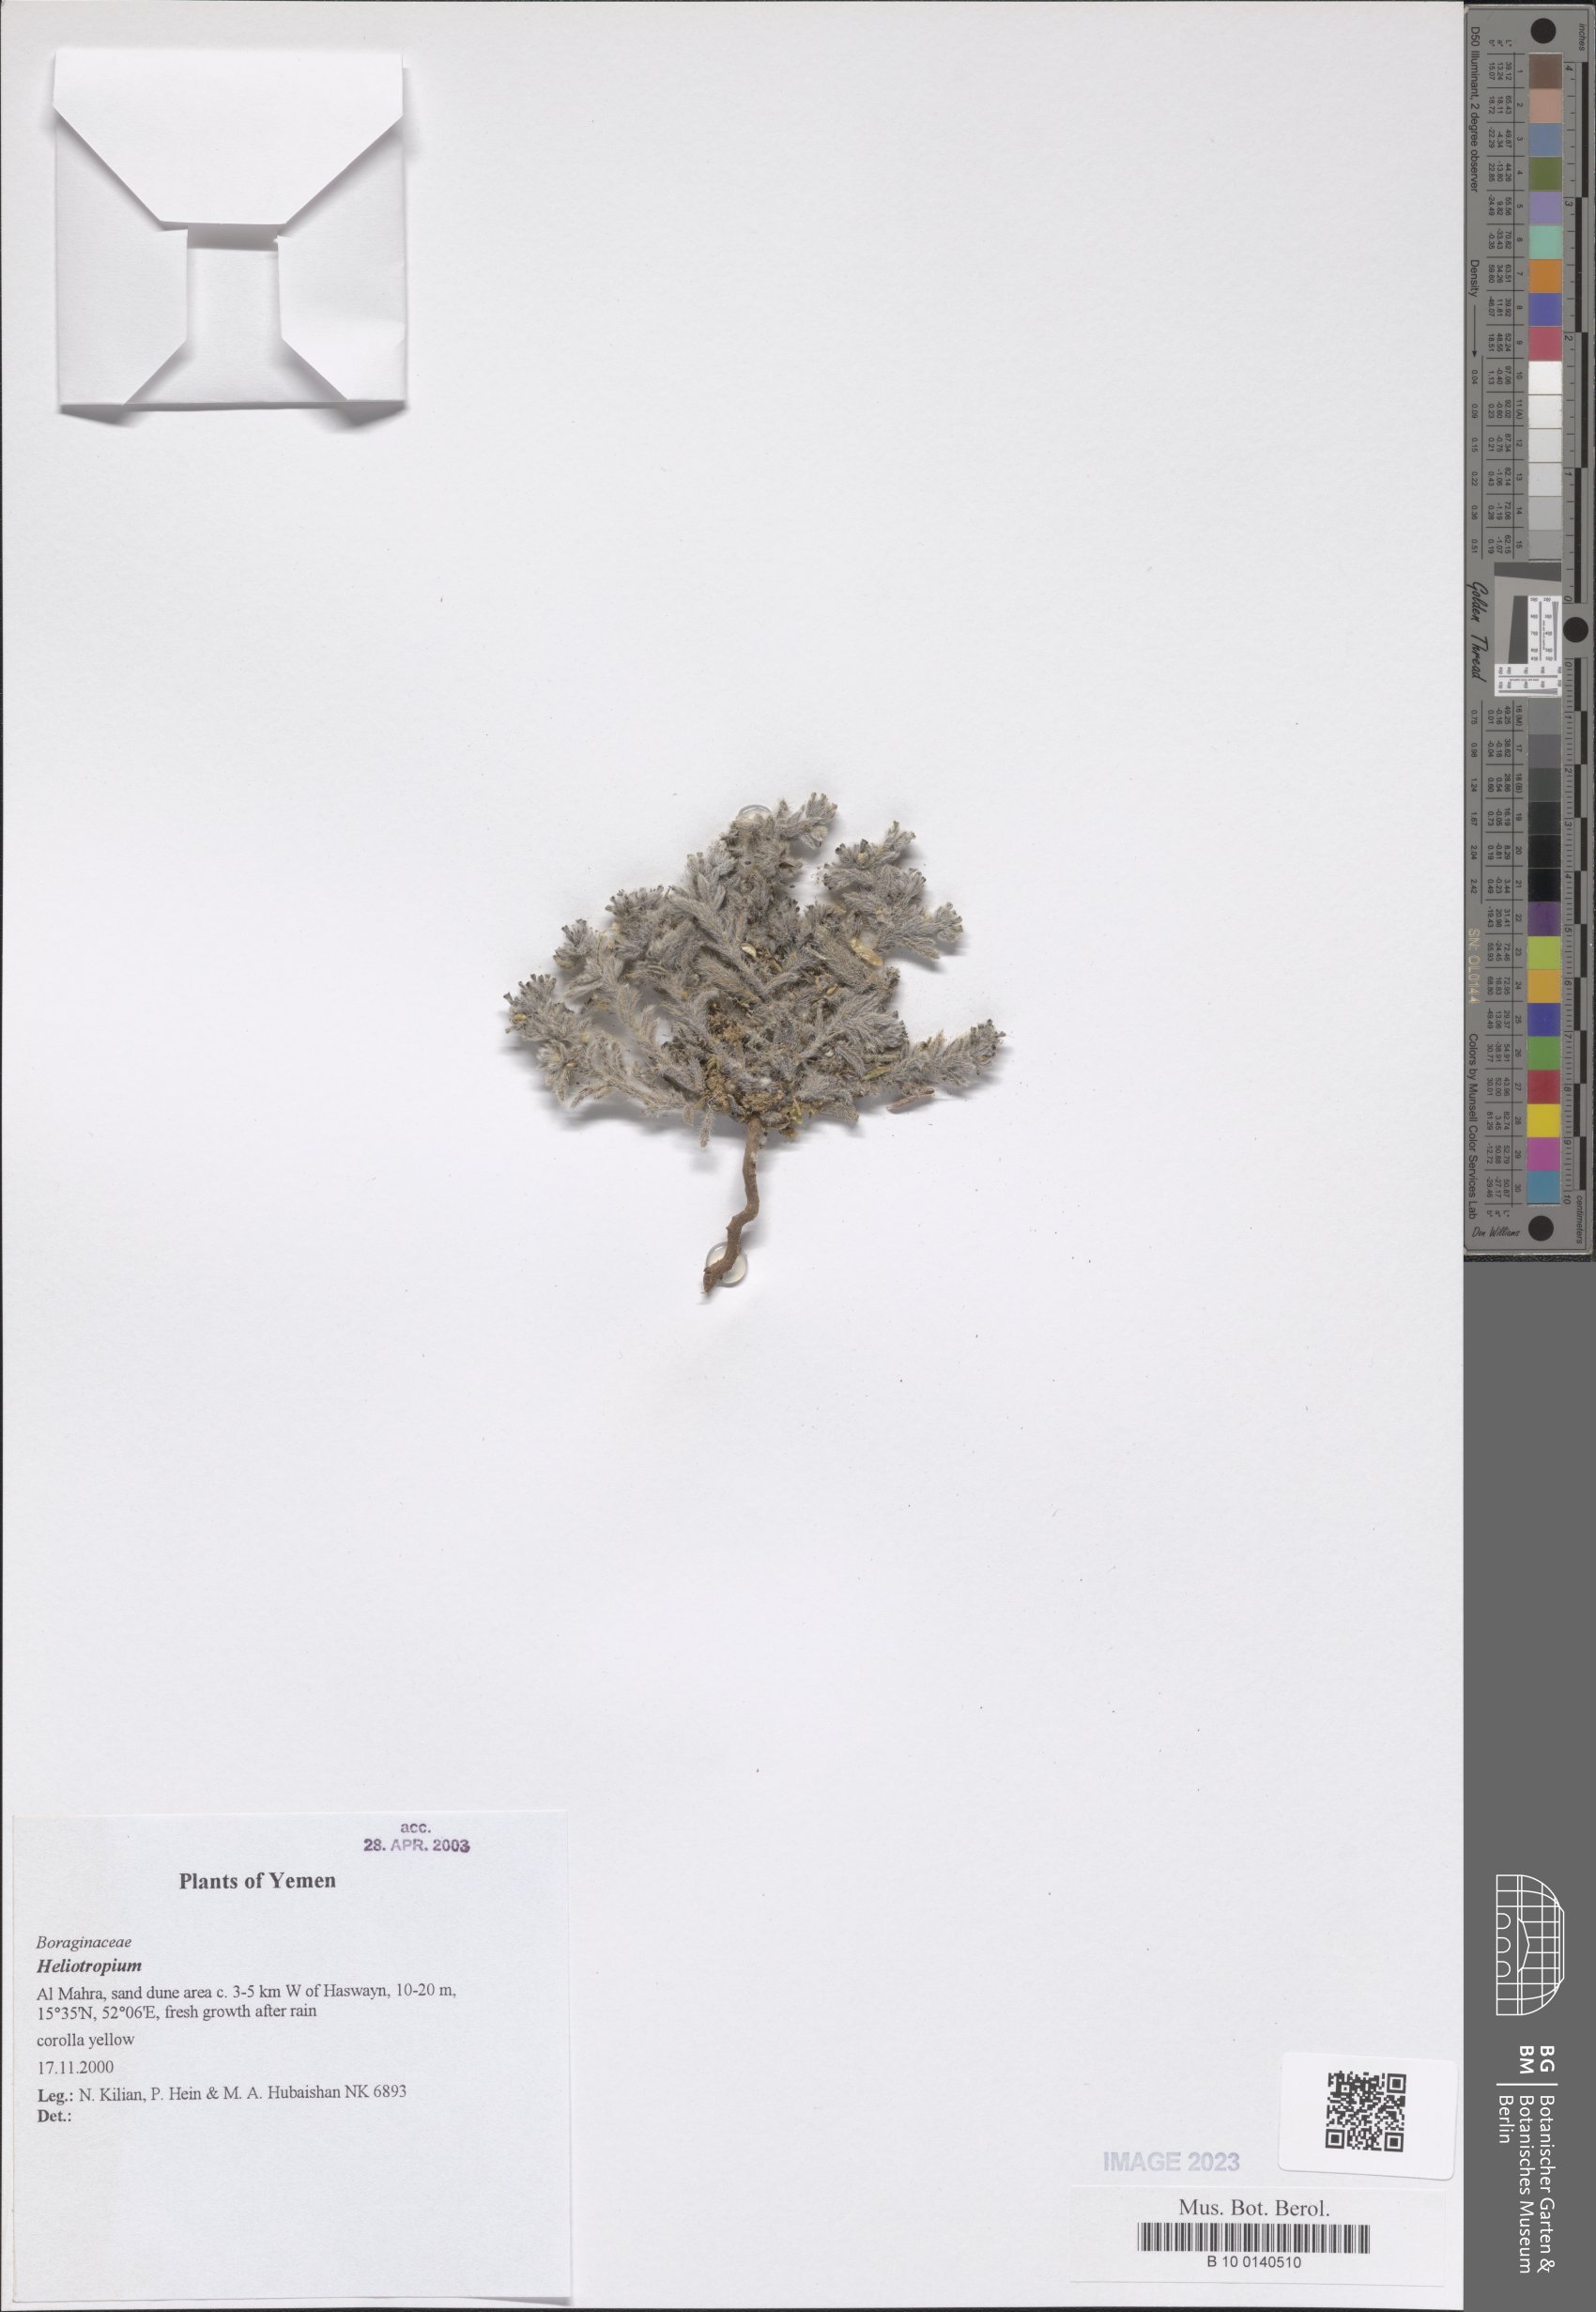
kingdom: Plantae
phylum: Tracheophyta
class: Magnoliopsida
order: Boraginales
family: Heliotropiaceae
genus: Heliotropium
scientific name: Heliotropium
